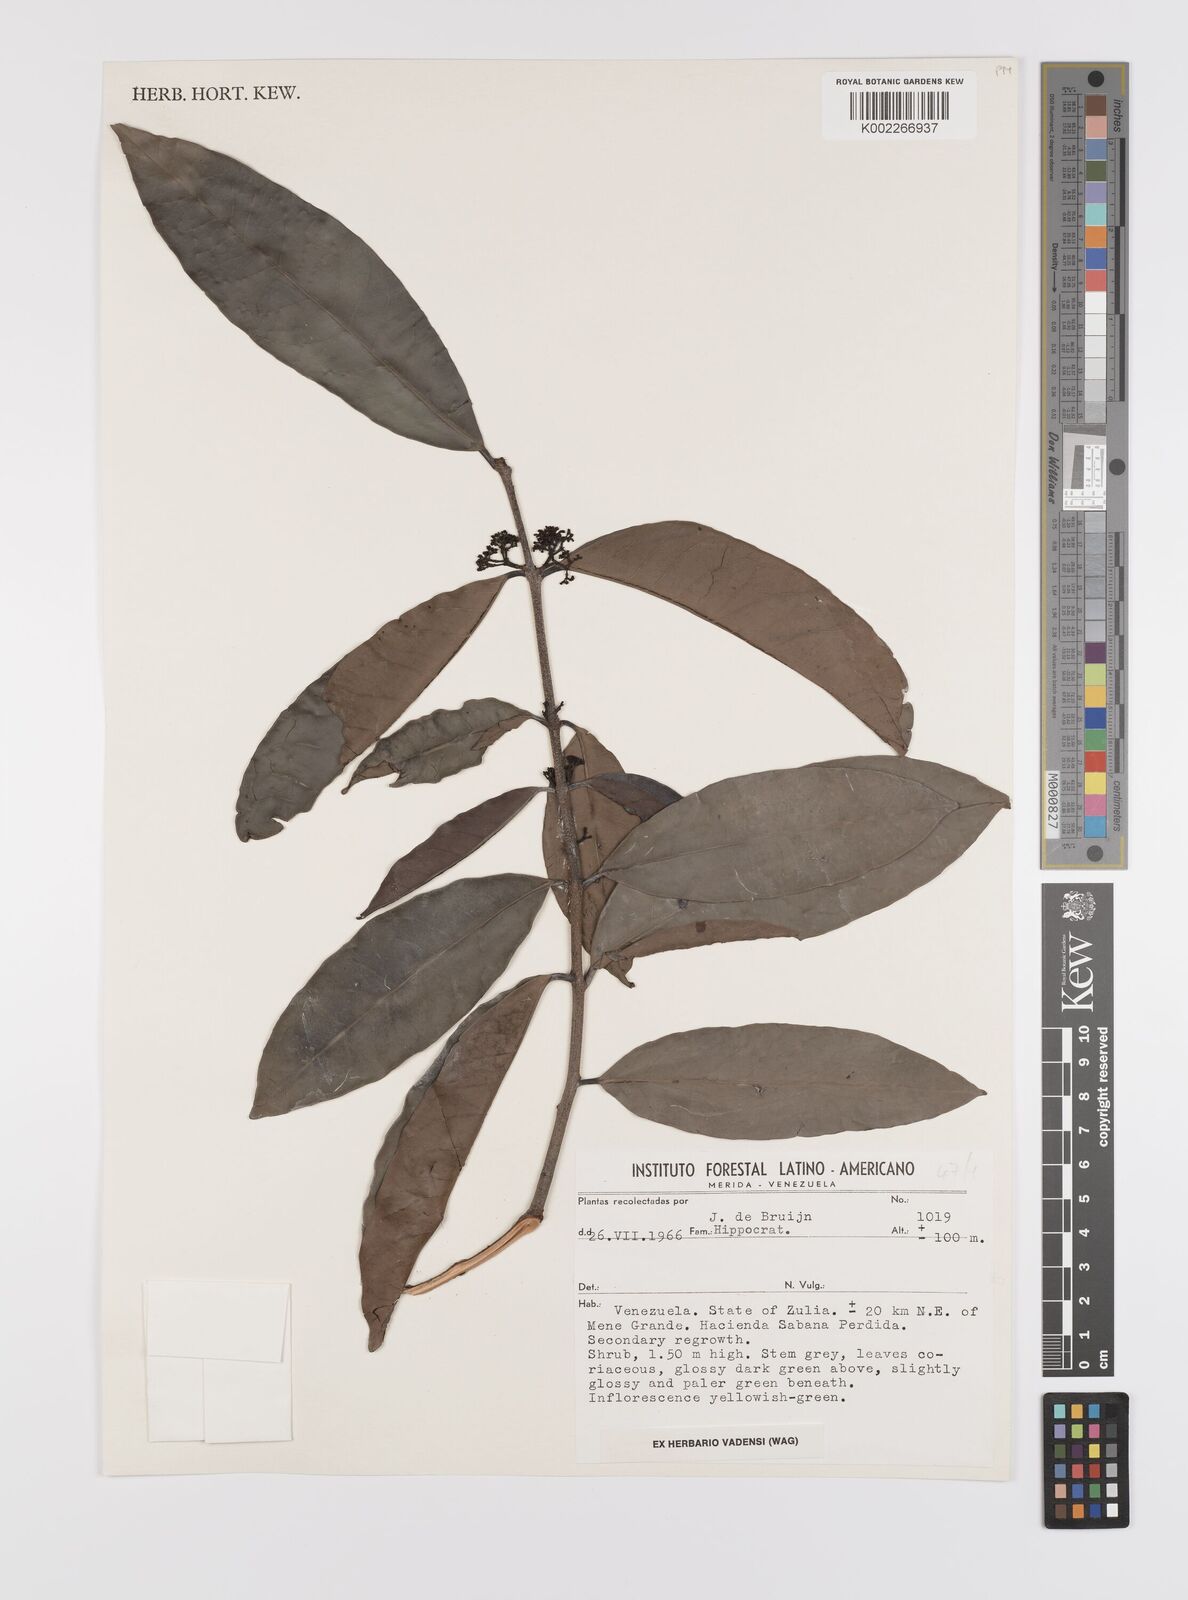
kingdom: Plantae
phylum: Tracheophyta
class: Magnoliopsida
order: Celastrales
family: Celastraceae
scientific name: Celastraceae
